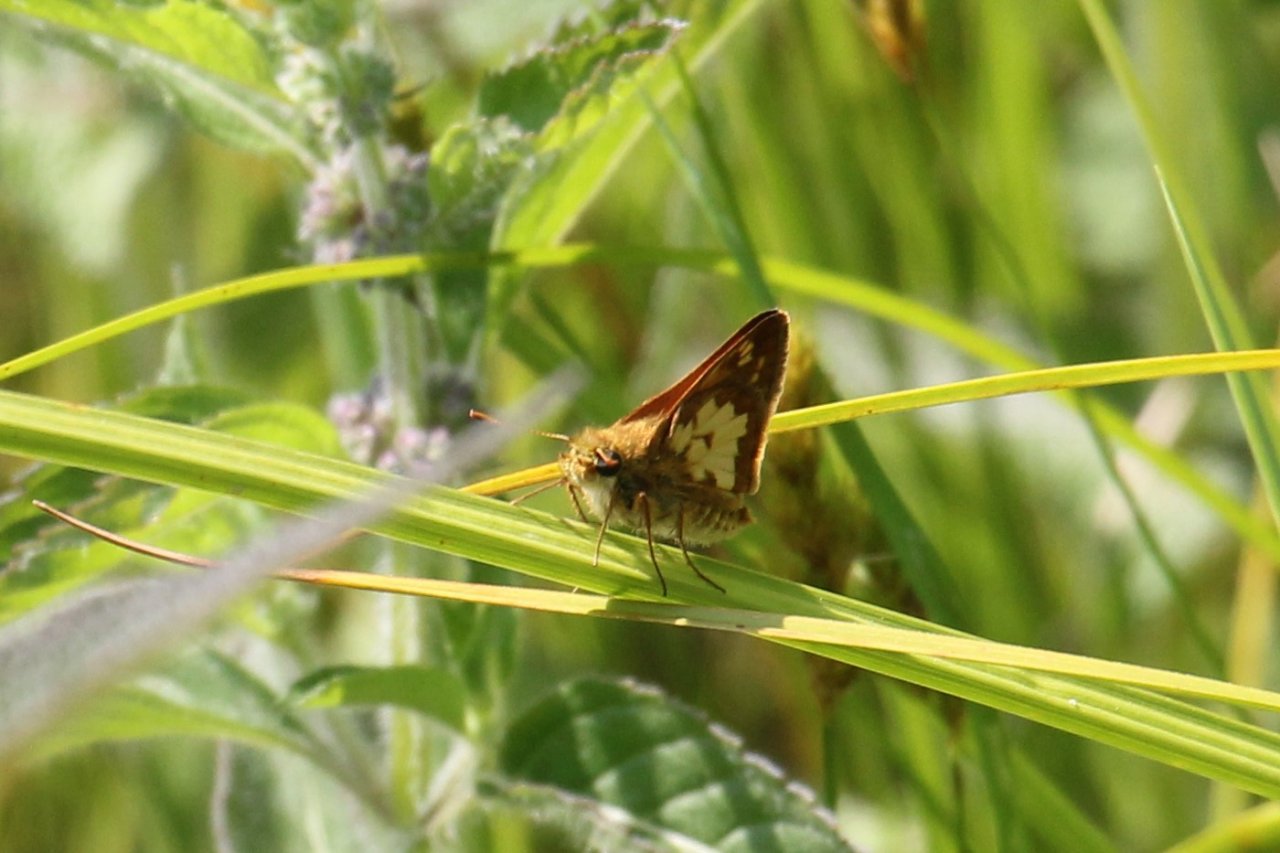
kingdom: Animalia
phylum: Arthropoda
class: Insecta
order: Lepidoptera
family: Hesperiidae
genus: Polites
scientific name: Polites coras
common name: Peck's Skipper
